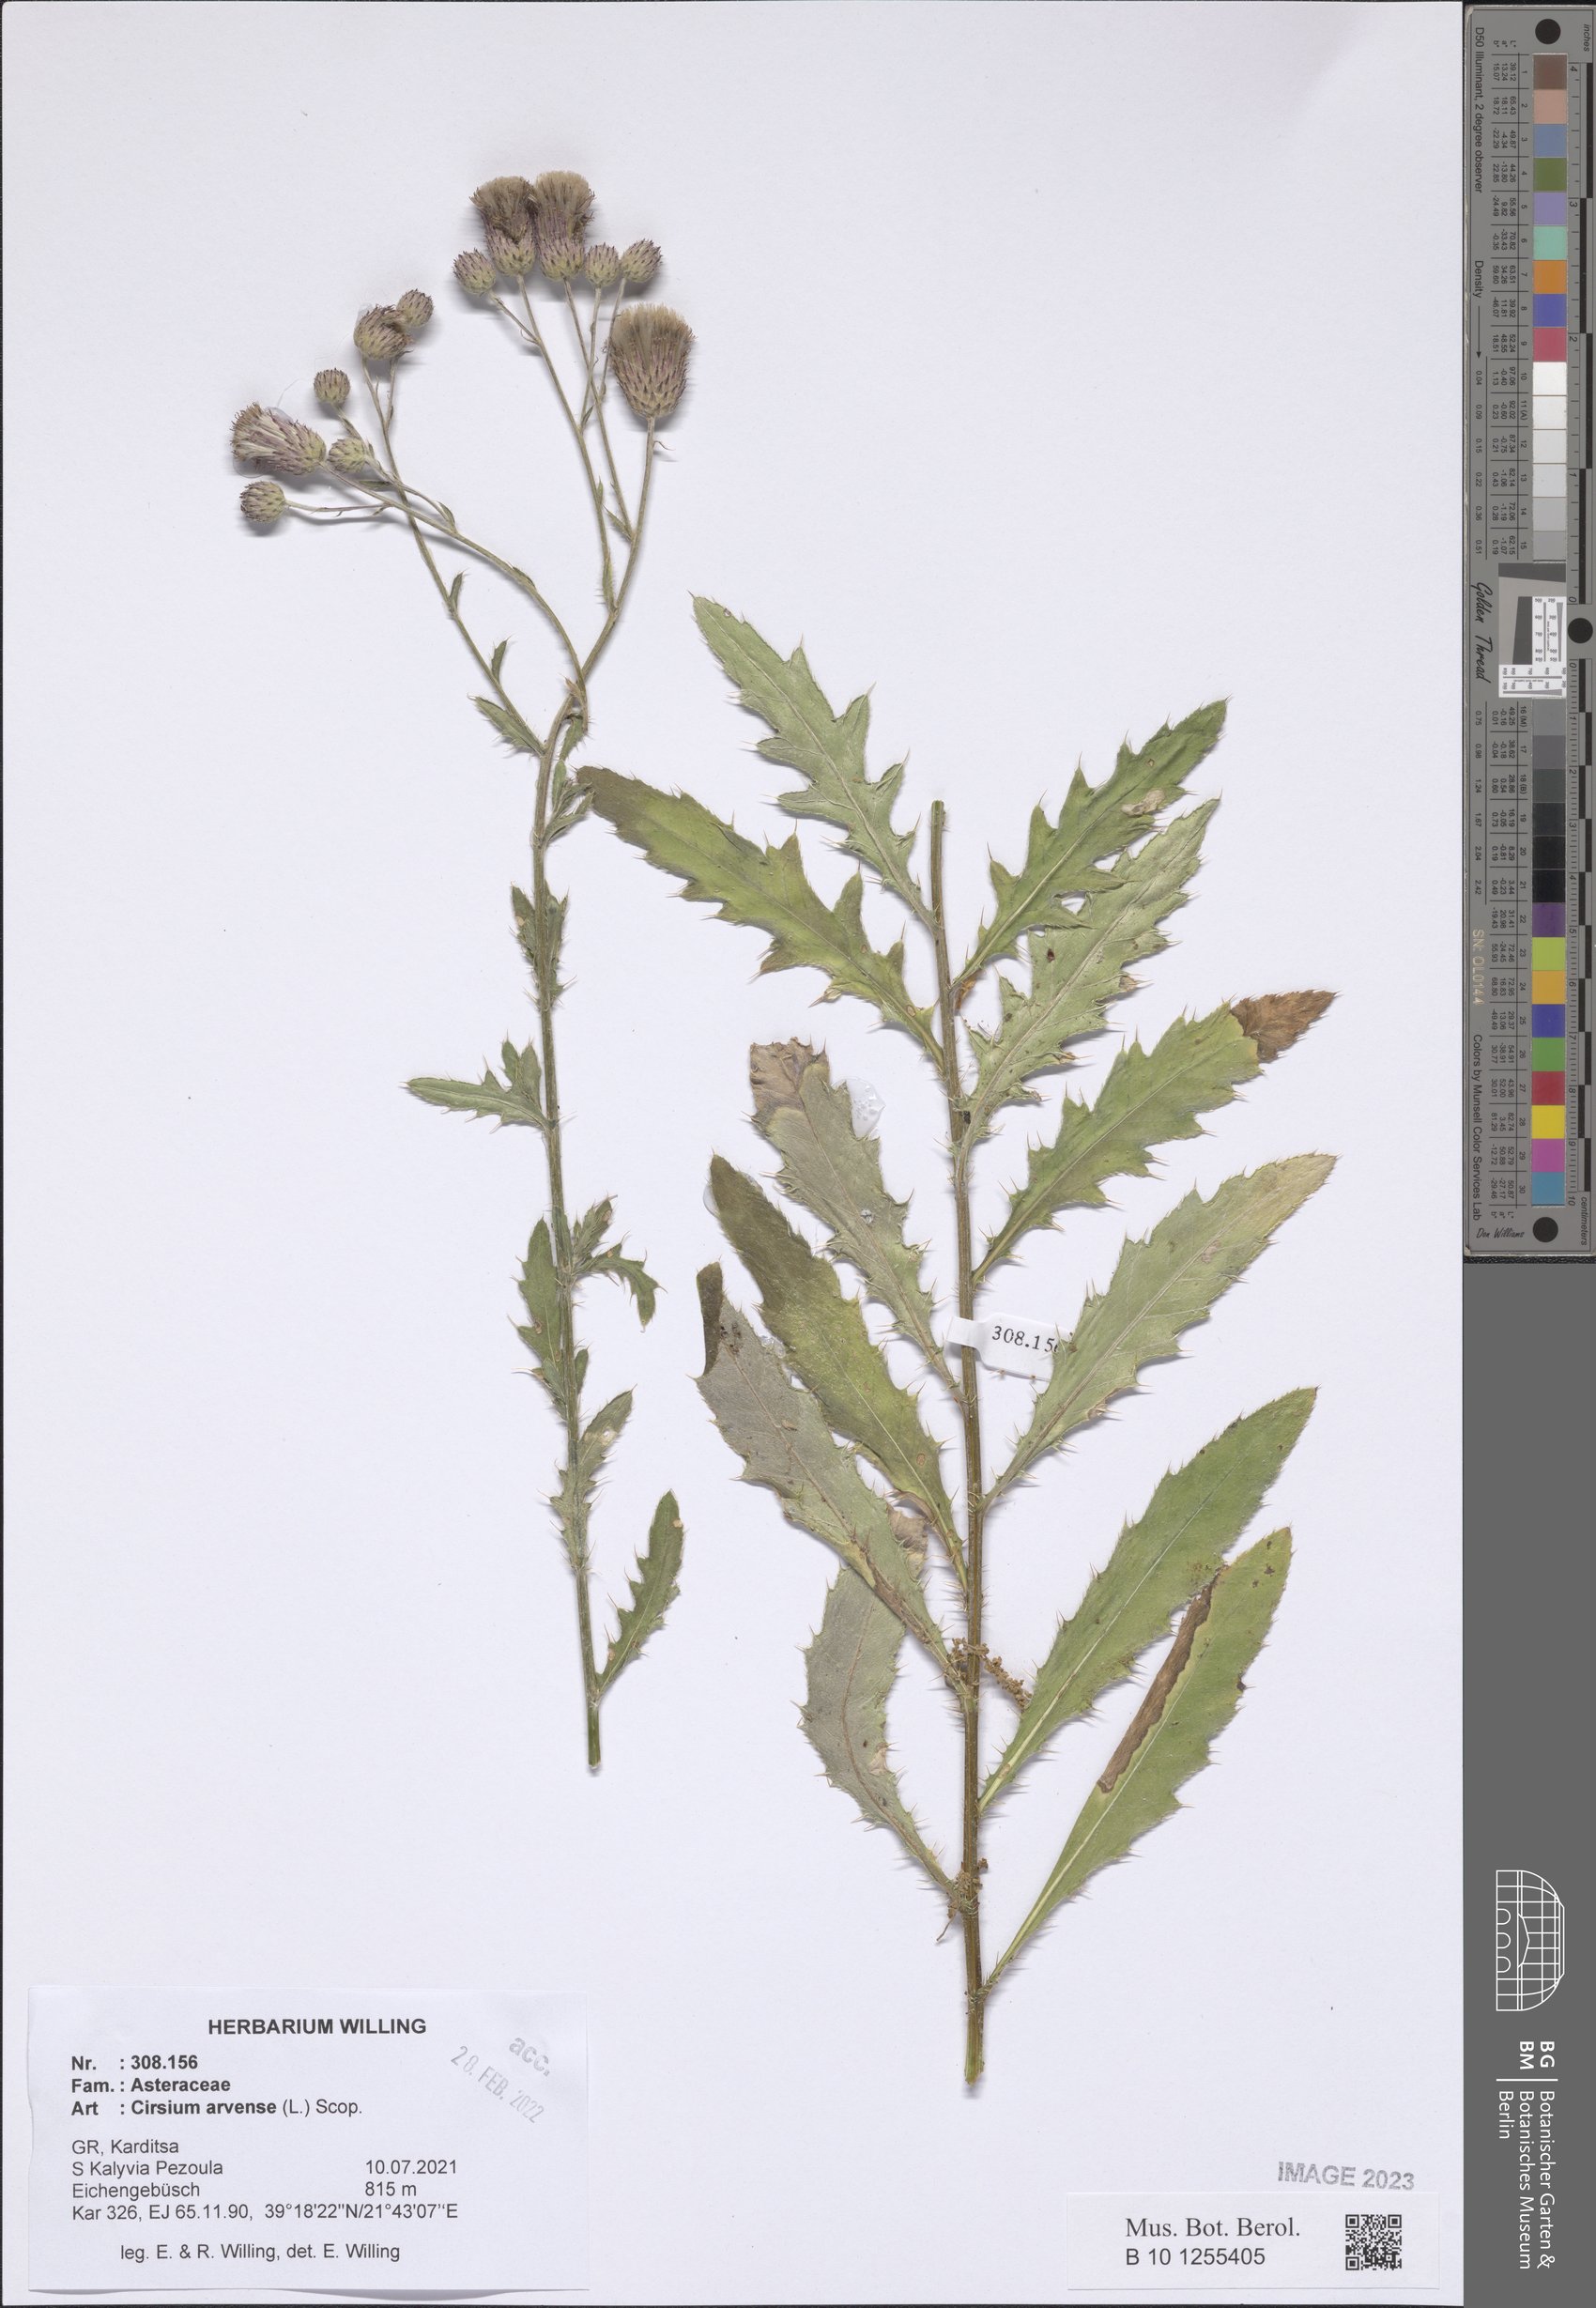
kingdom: Plantae
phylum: Tracheophyta
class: Magnoliopsida
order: Asterales
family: Asteraceae
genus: Cirsium
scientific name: Cirsium arvense
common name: Creeping thistle
